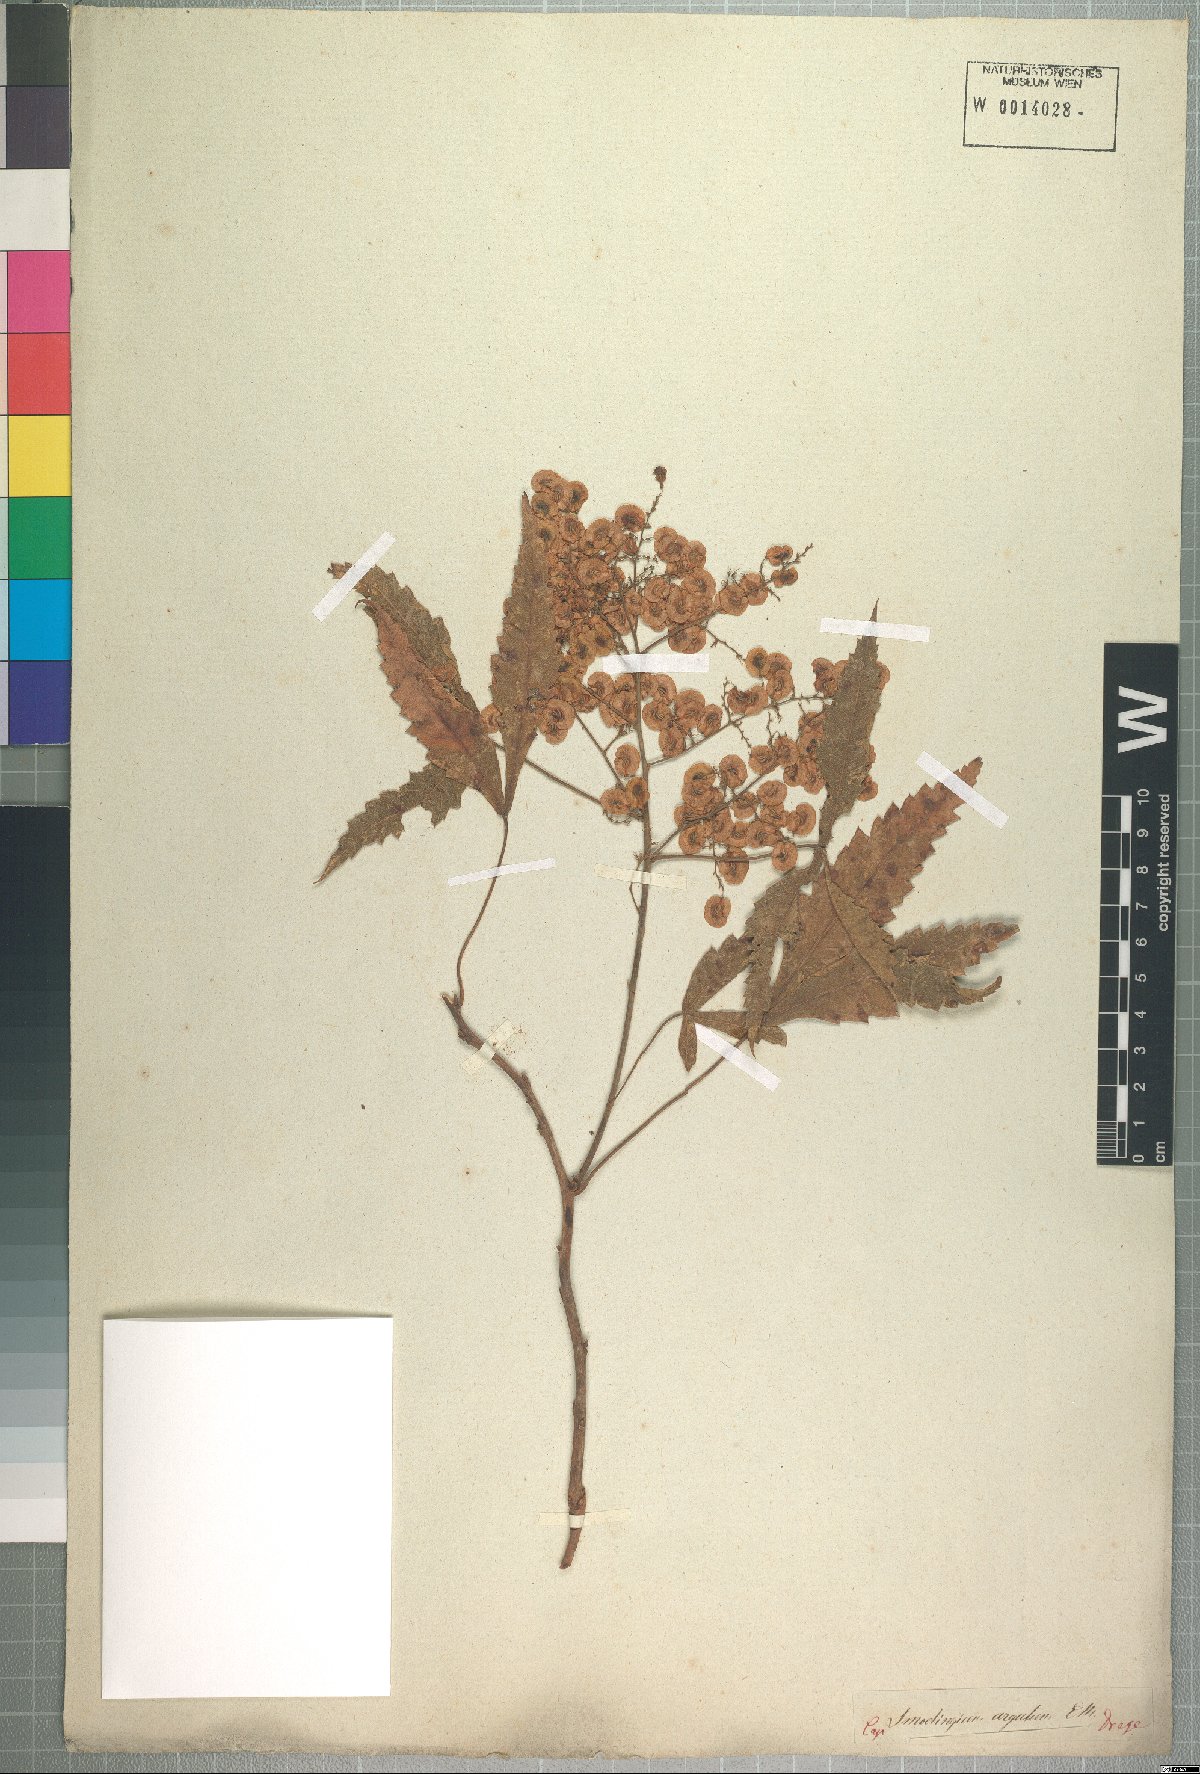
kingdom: Plantae
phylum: Tracheophyta
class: Magnoliopsida
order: Sapindales
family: Anacardiaceae
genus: Smodingium
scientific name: Smodingium argutum
